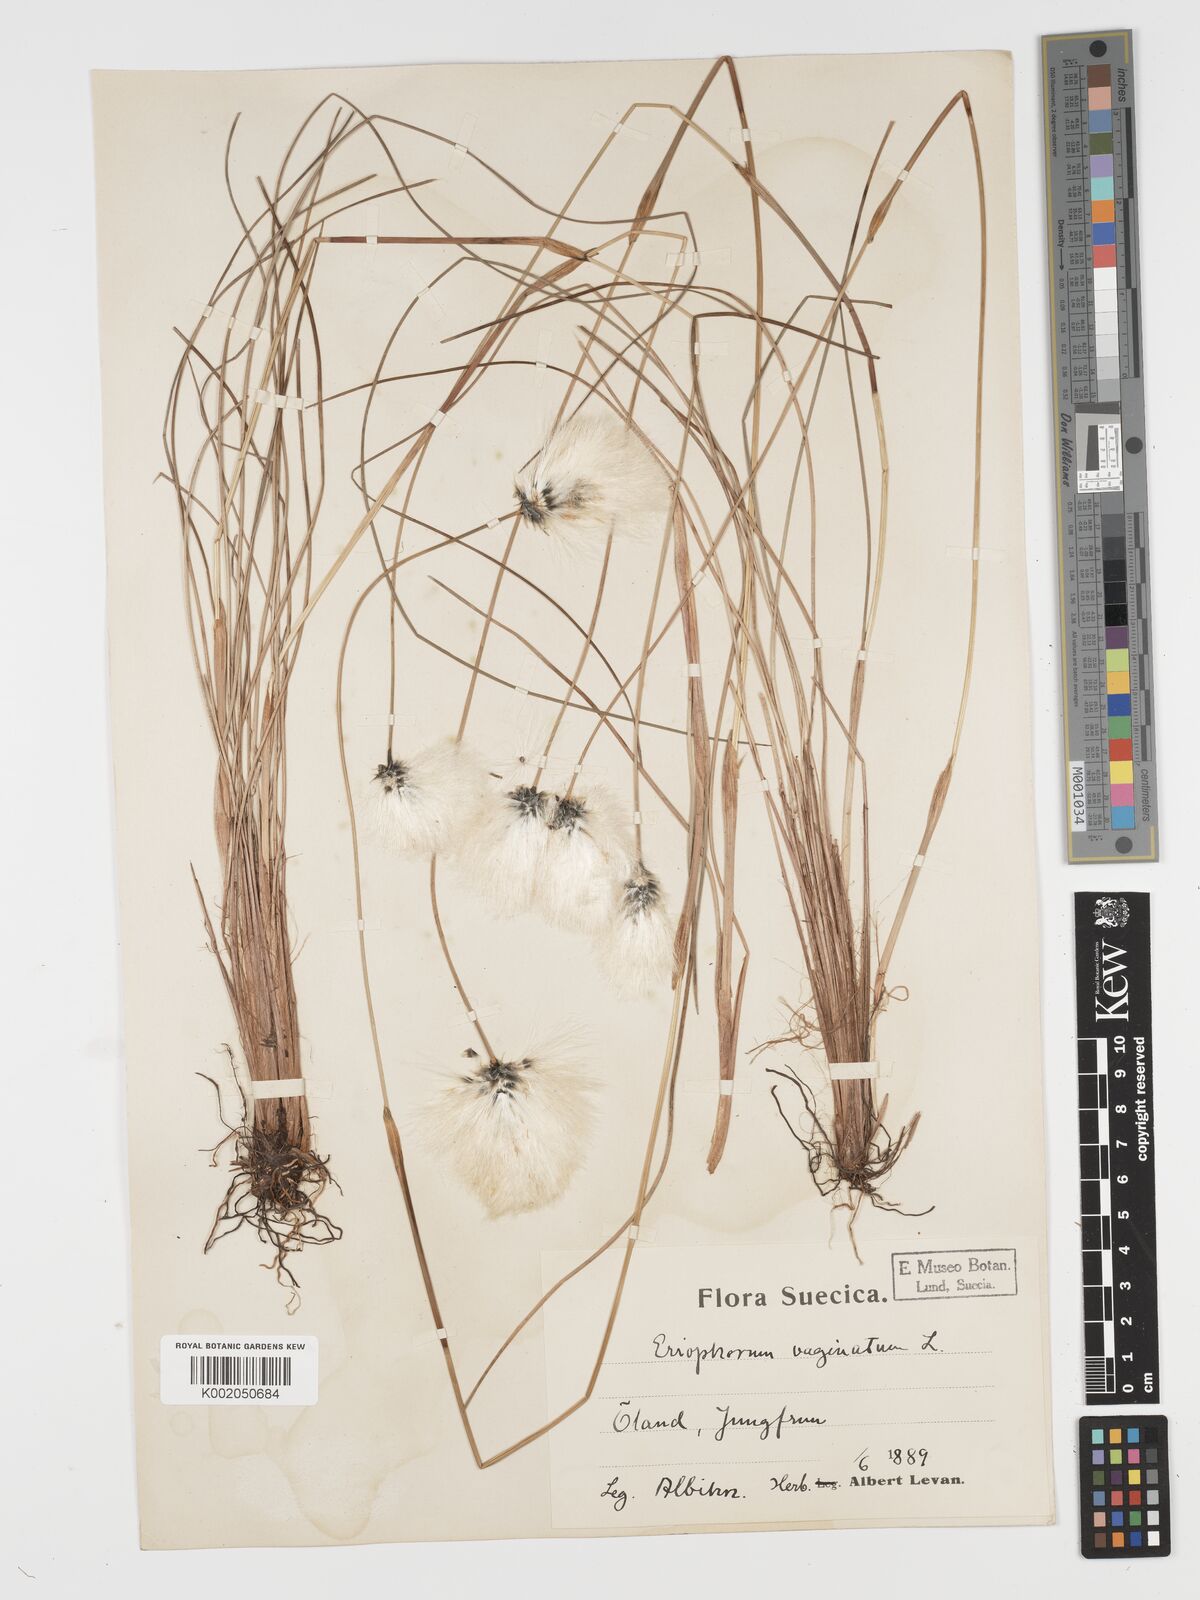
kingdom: Plantae
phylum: Tracheophyta
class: Liliopsida
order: Poales
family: Cyperaceae
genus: Eriophorum
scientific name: Eriophorum vaginatum
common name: Hare's-tail cottongrass
